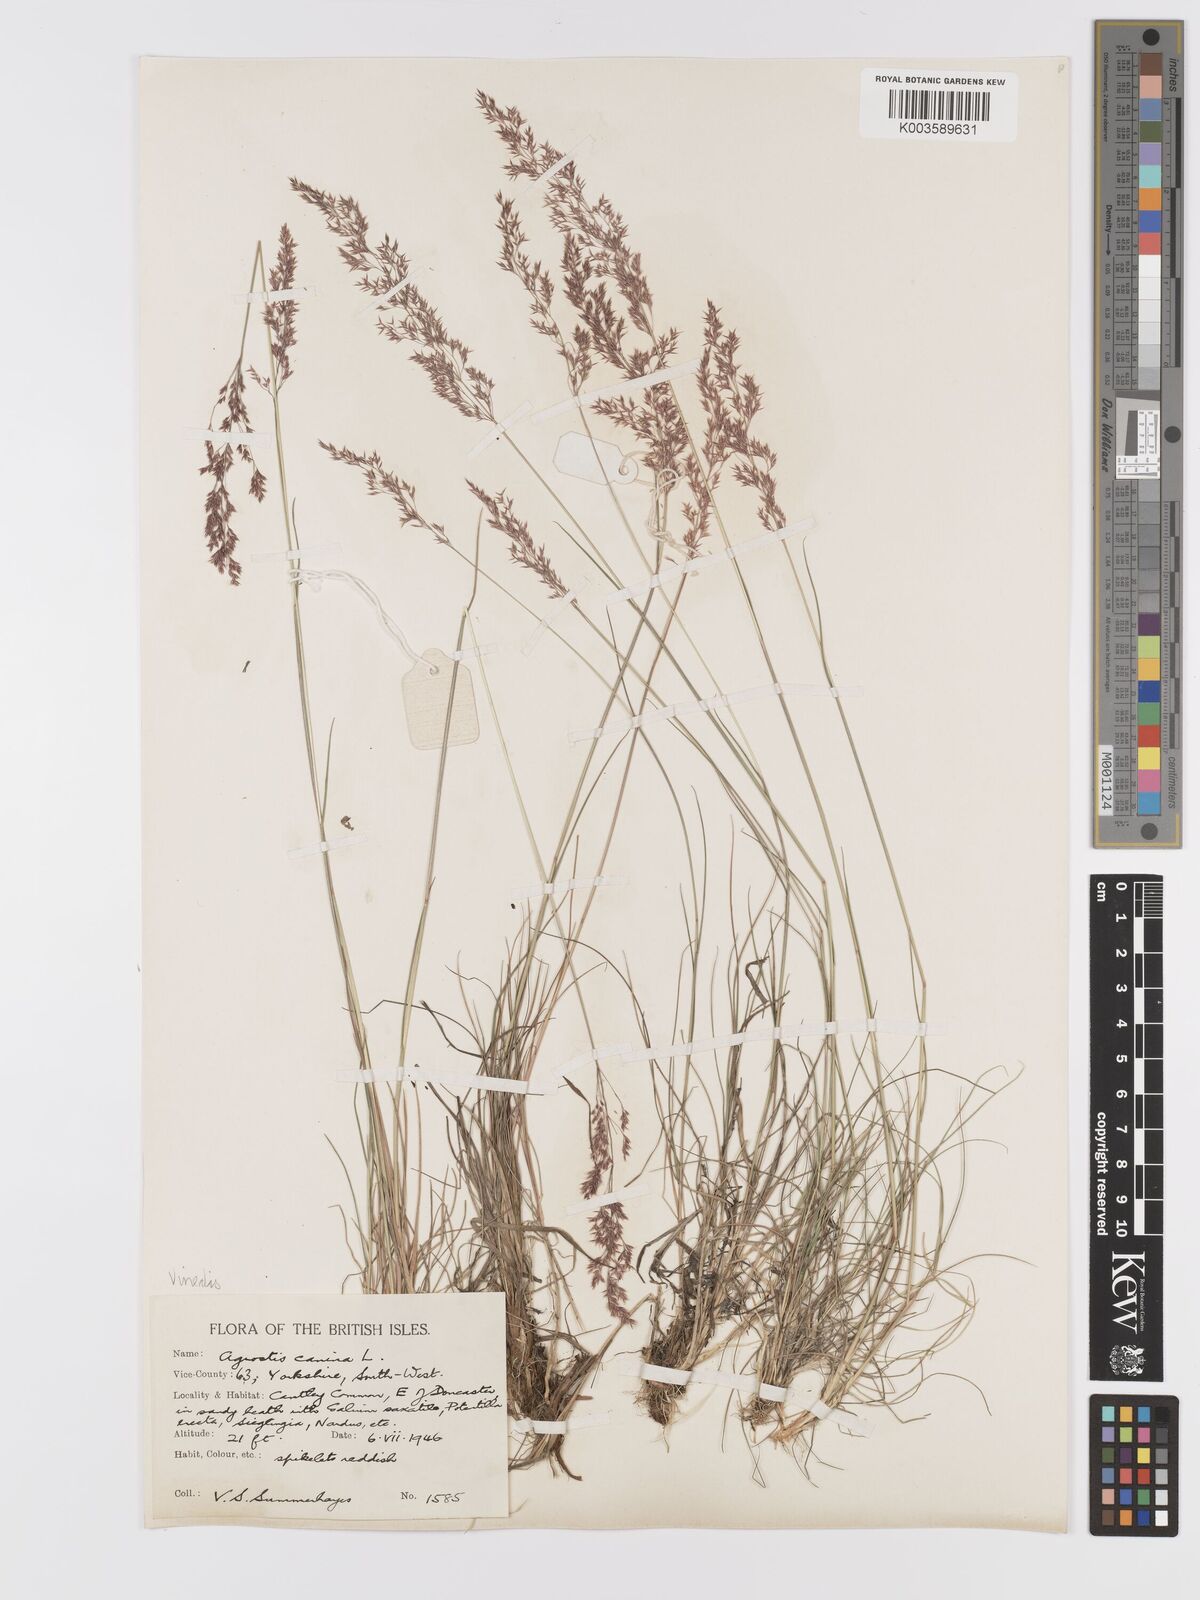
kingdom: Plantae
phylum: Tracheophyta
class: Liliopsida
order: Poales
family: Poaceae
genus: Agrostis
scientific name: Agrostis
